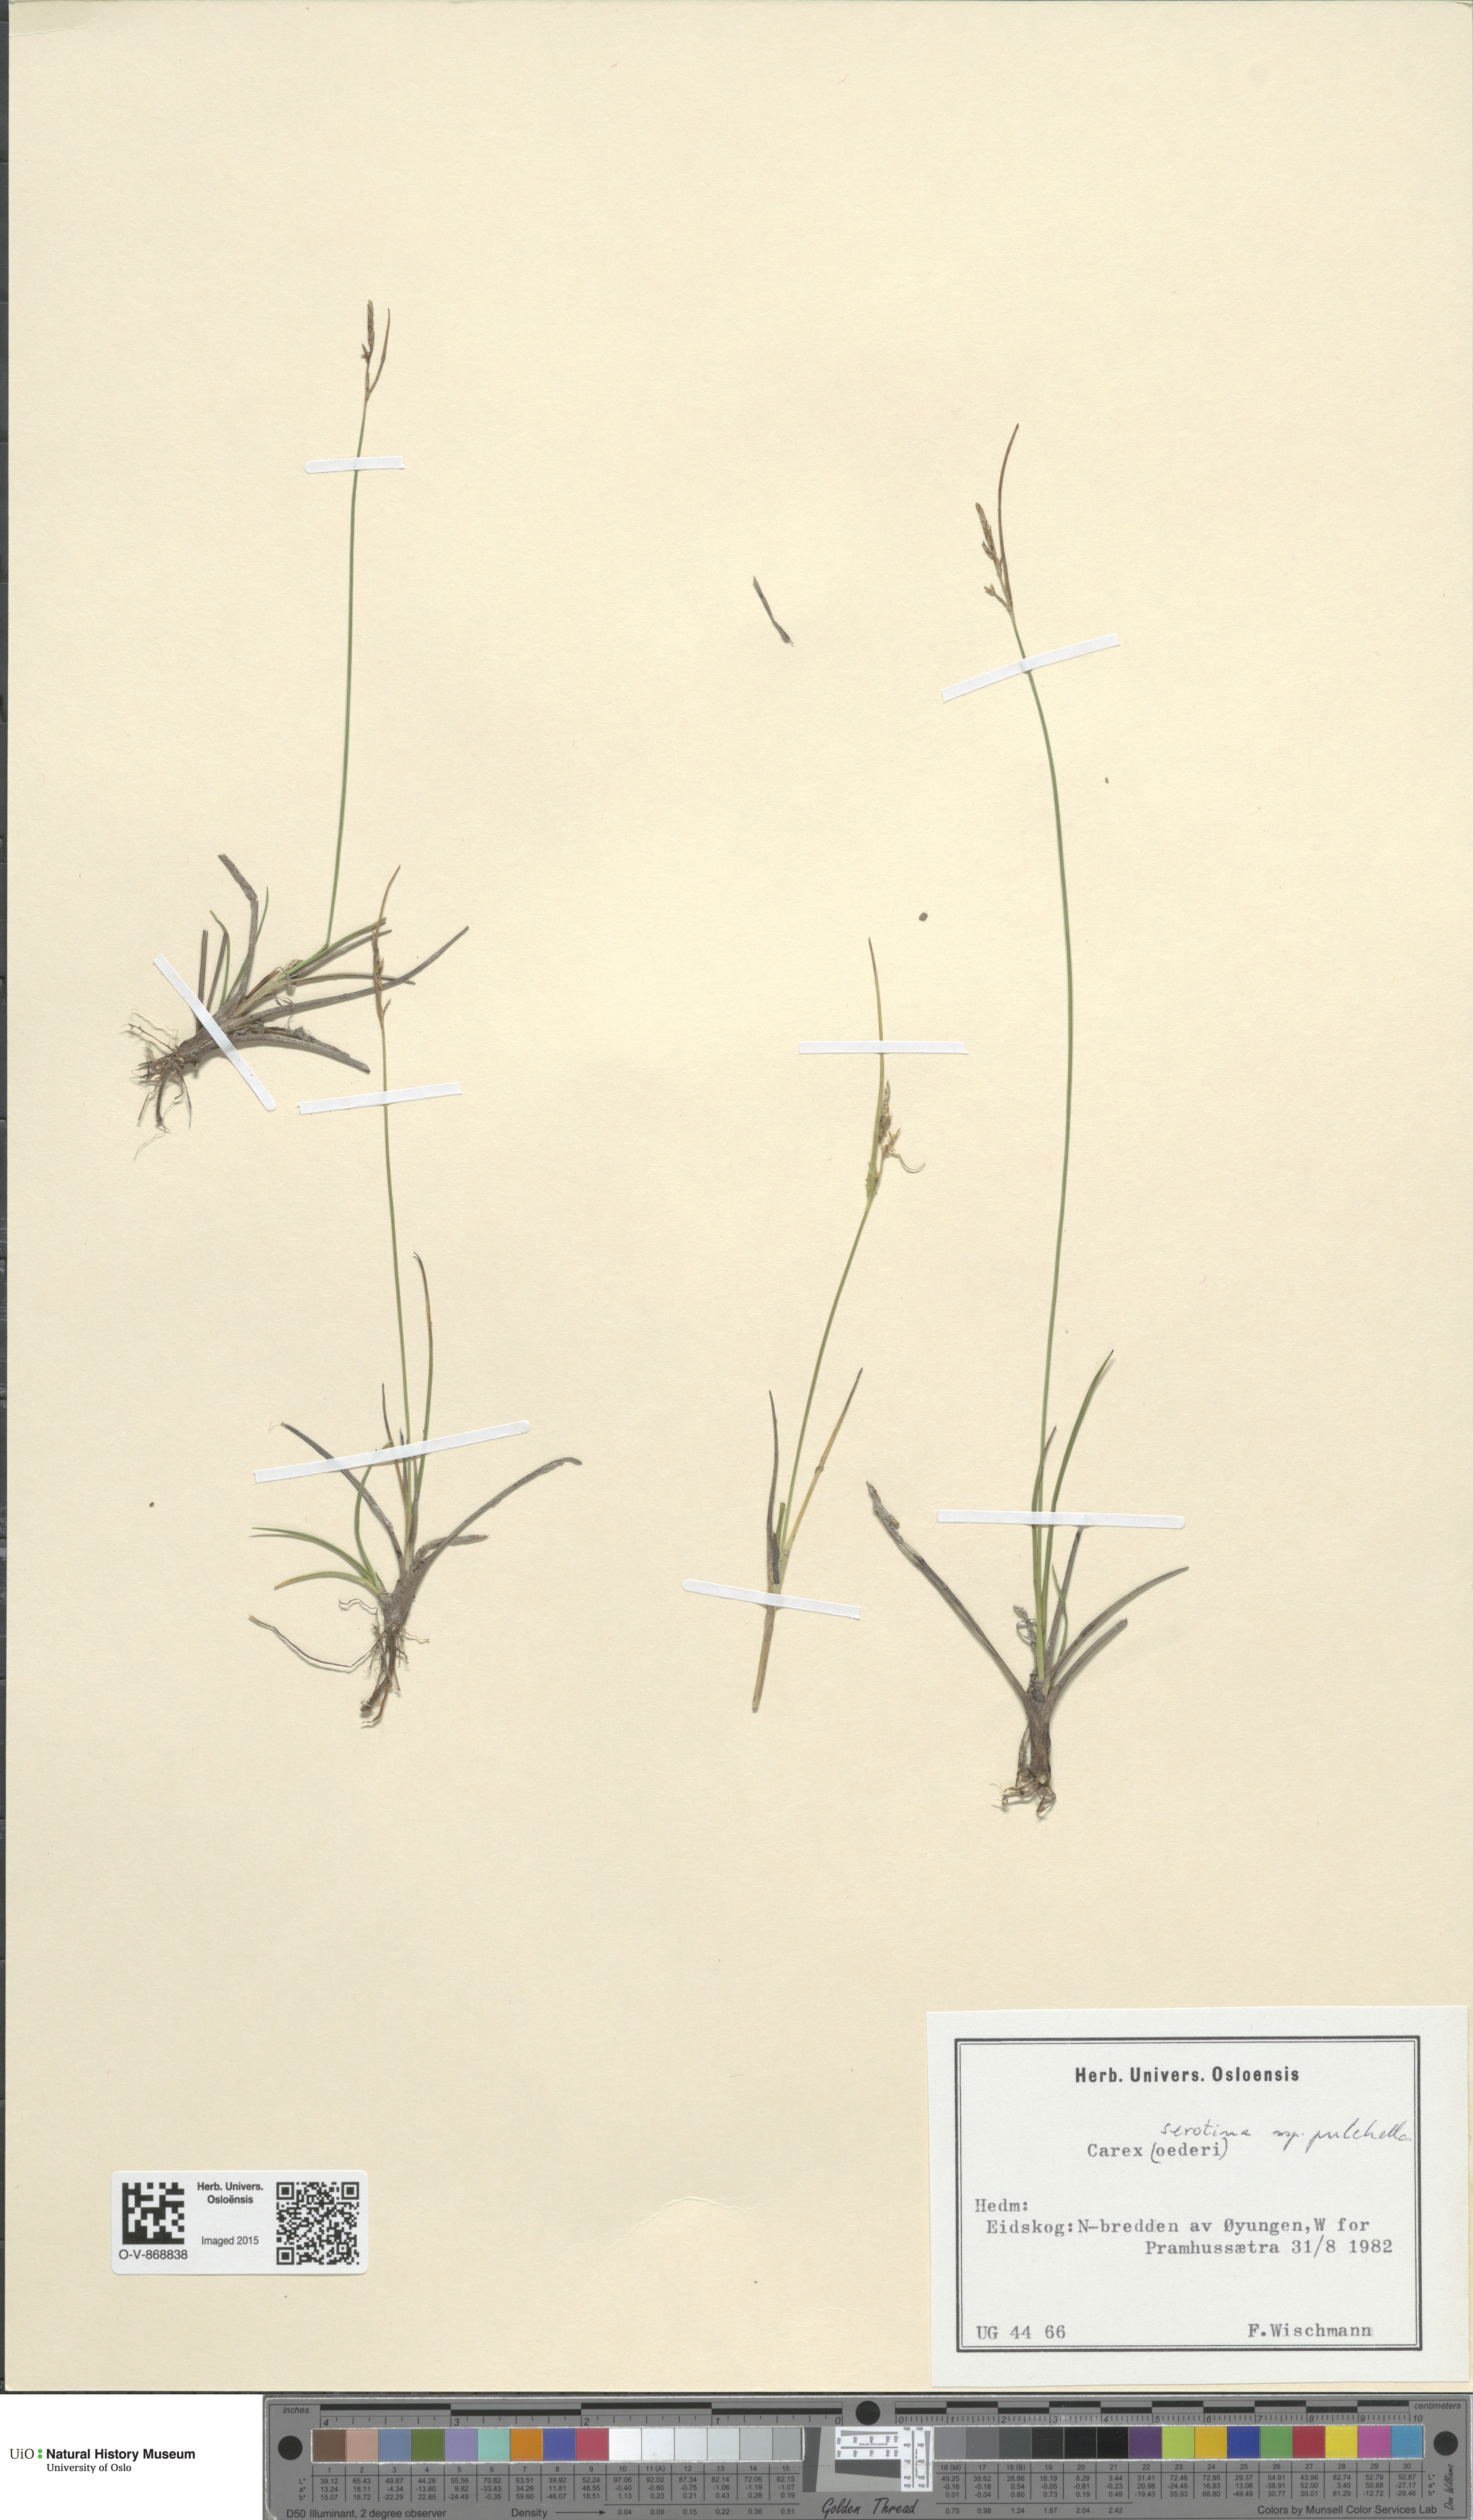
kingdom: Plantae
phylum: Tracheophyta
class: Liliopsida
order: Poales
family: Cyperaceae
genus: Carex
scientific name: Carex oederi
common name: Common & small-fruited yellow-sedge
